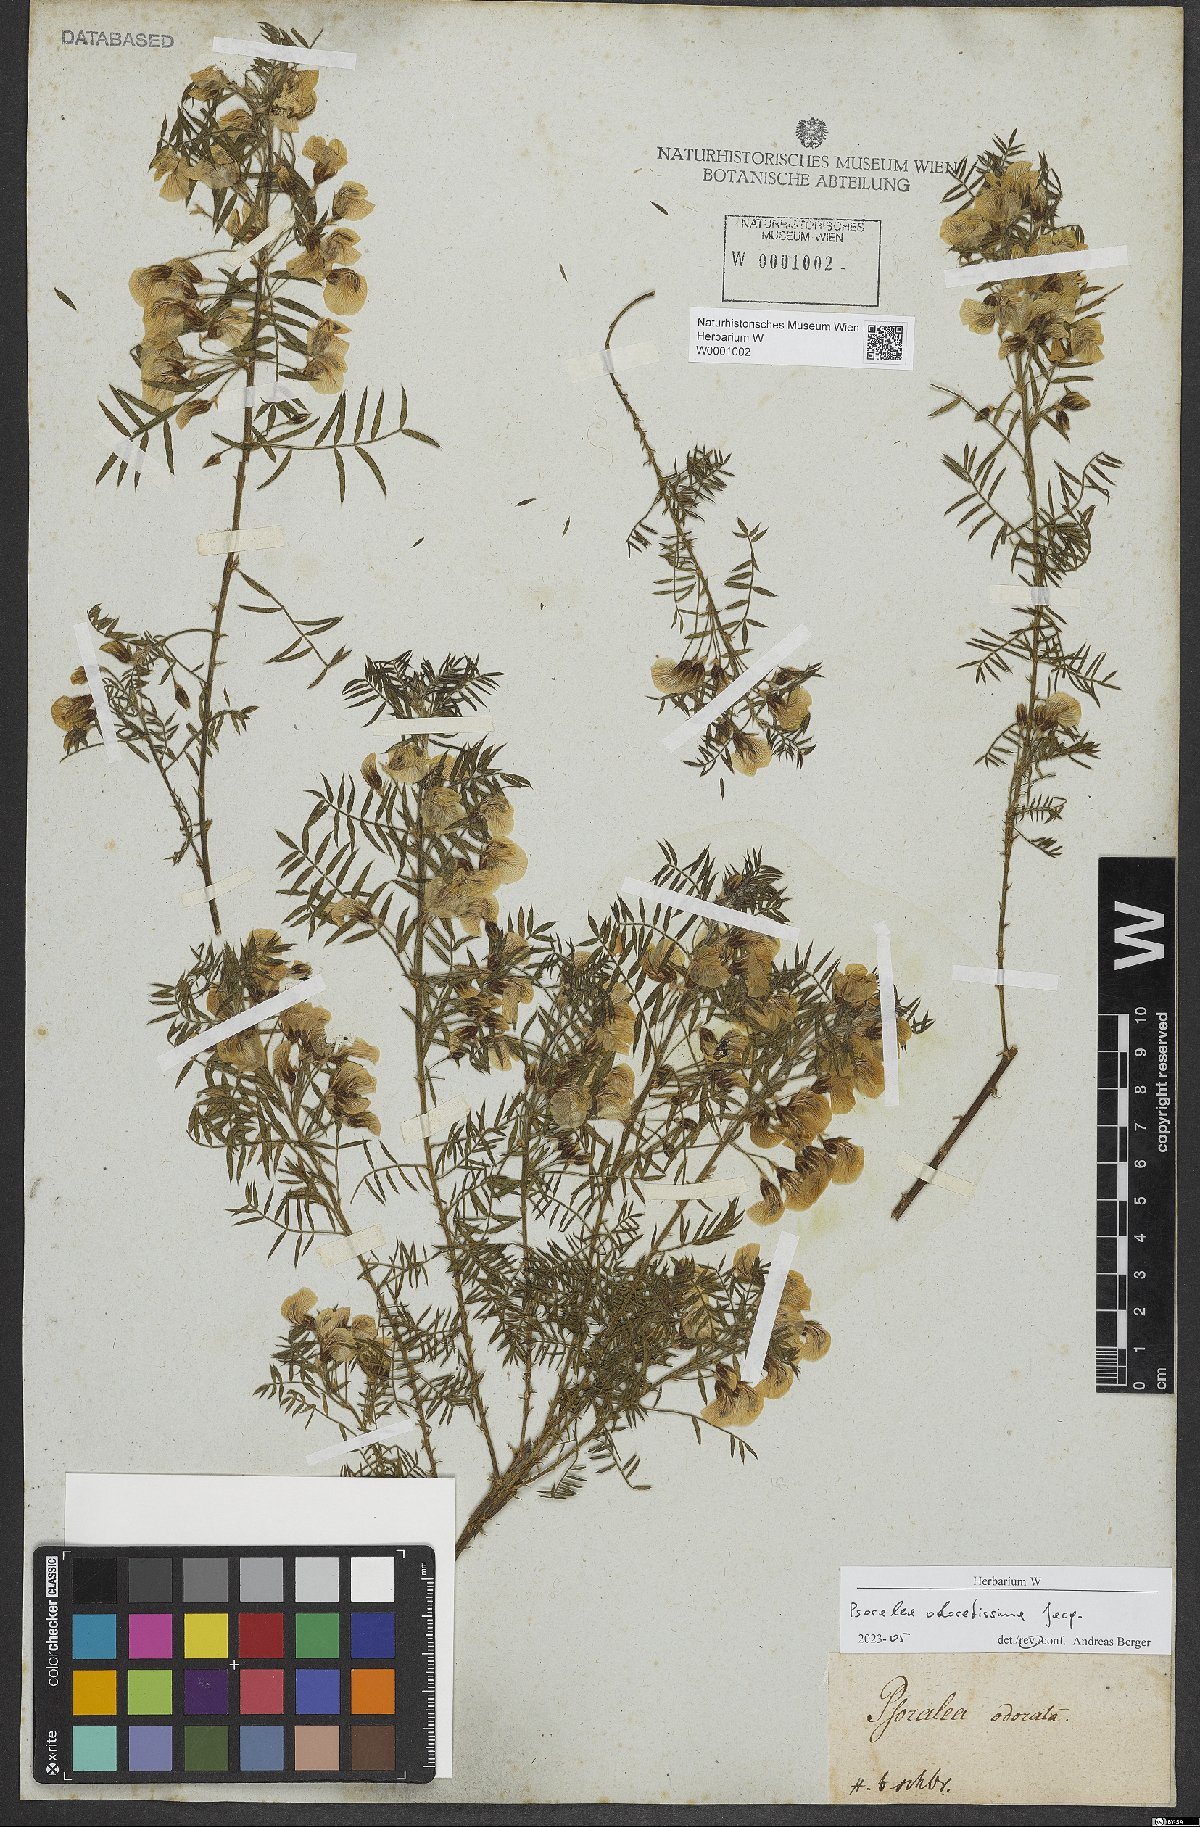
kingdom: Plantae
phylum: Tracheophyta
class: Magnoliopsida
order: Fabales
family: Fabaceae
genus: Psoralea
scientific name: Psoralea odoratissima
